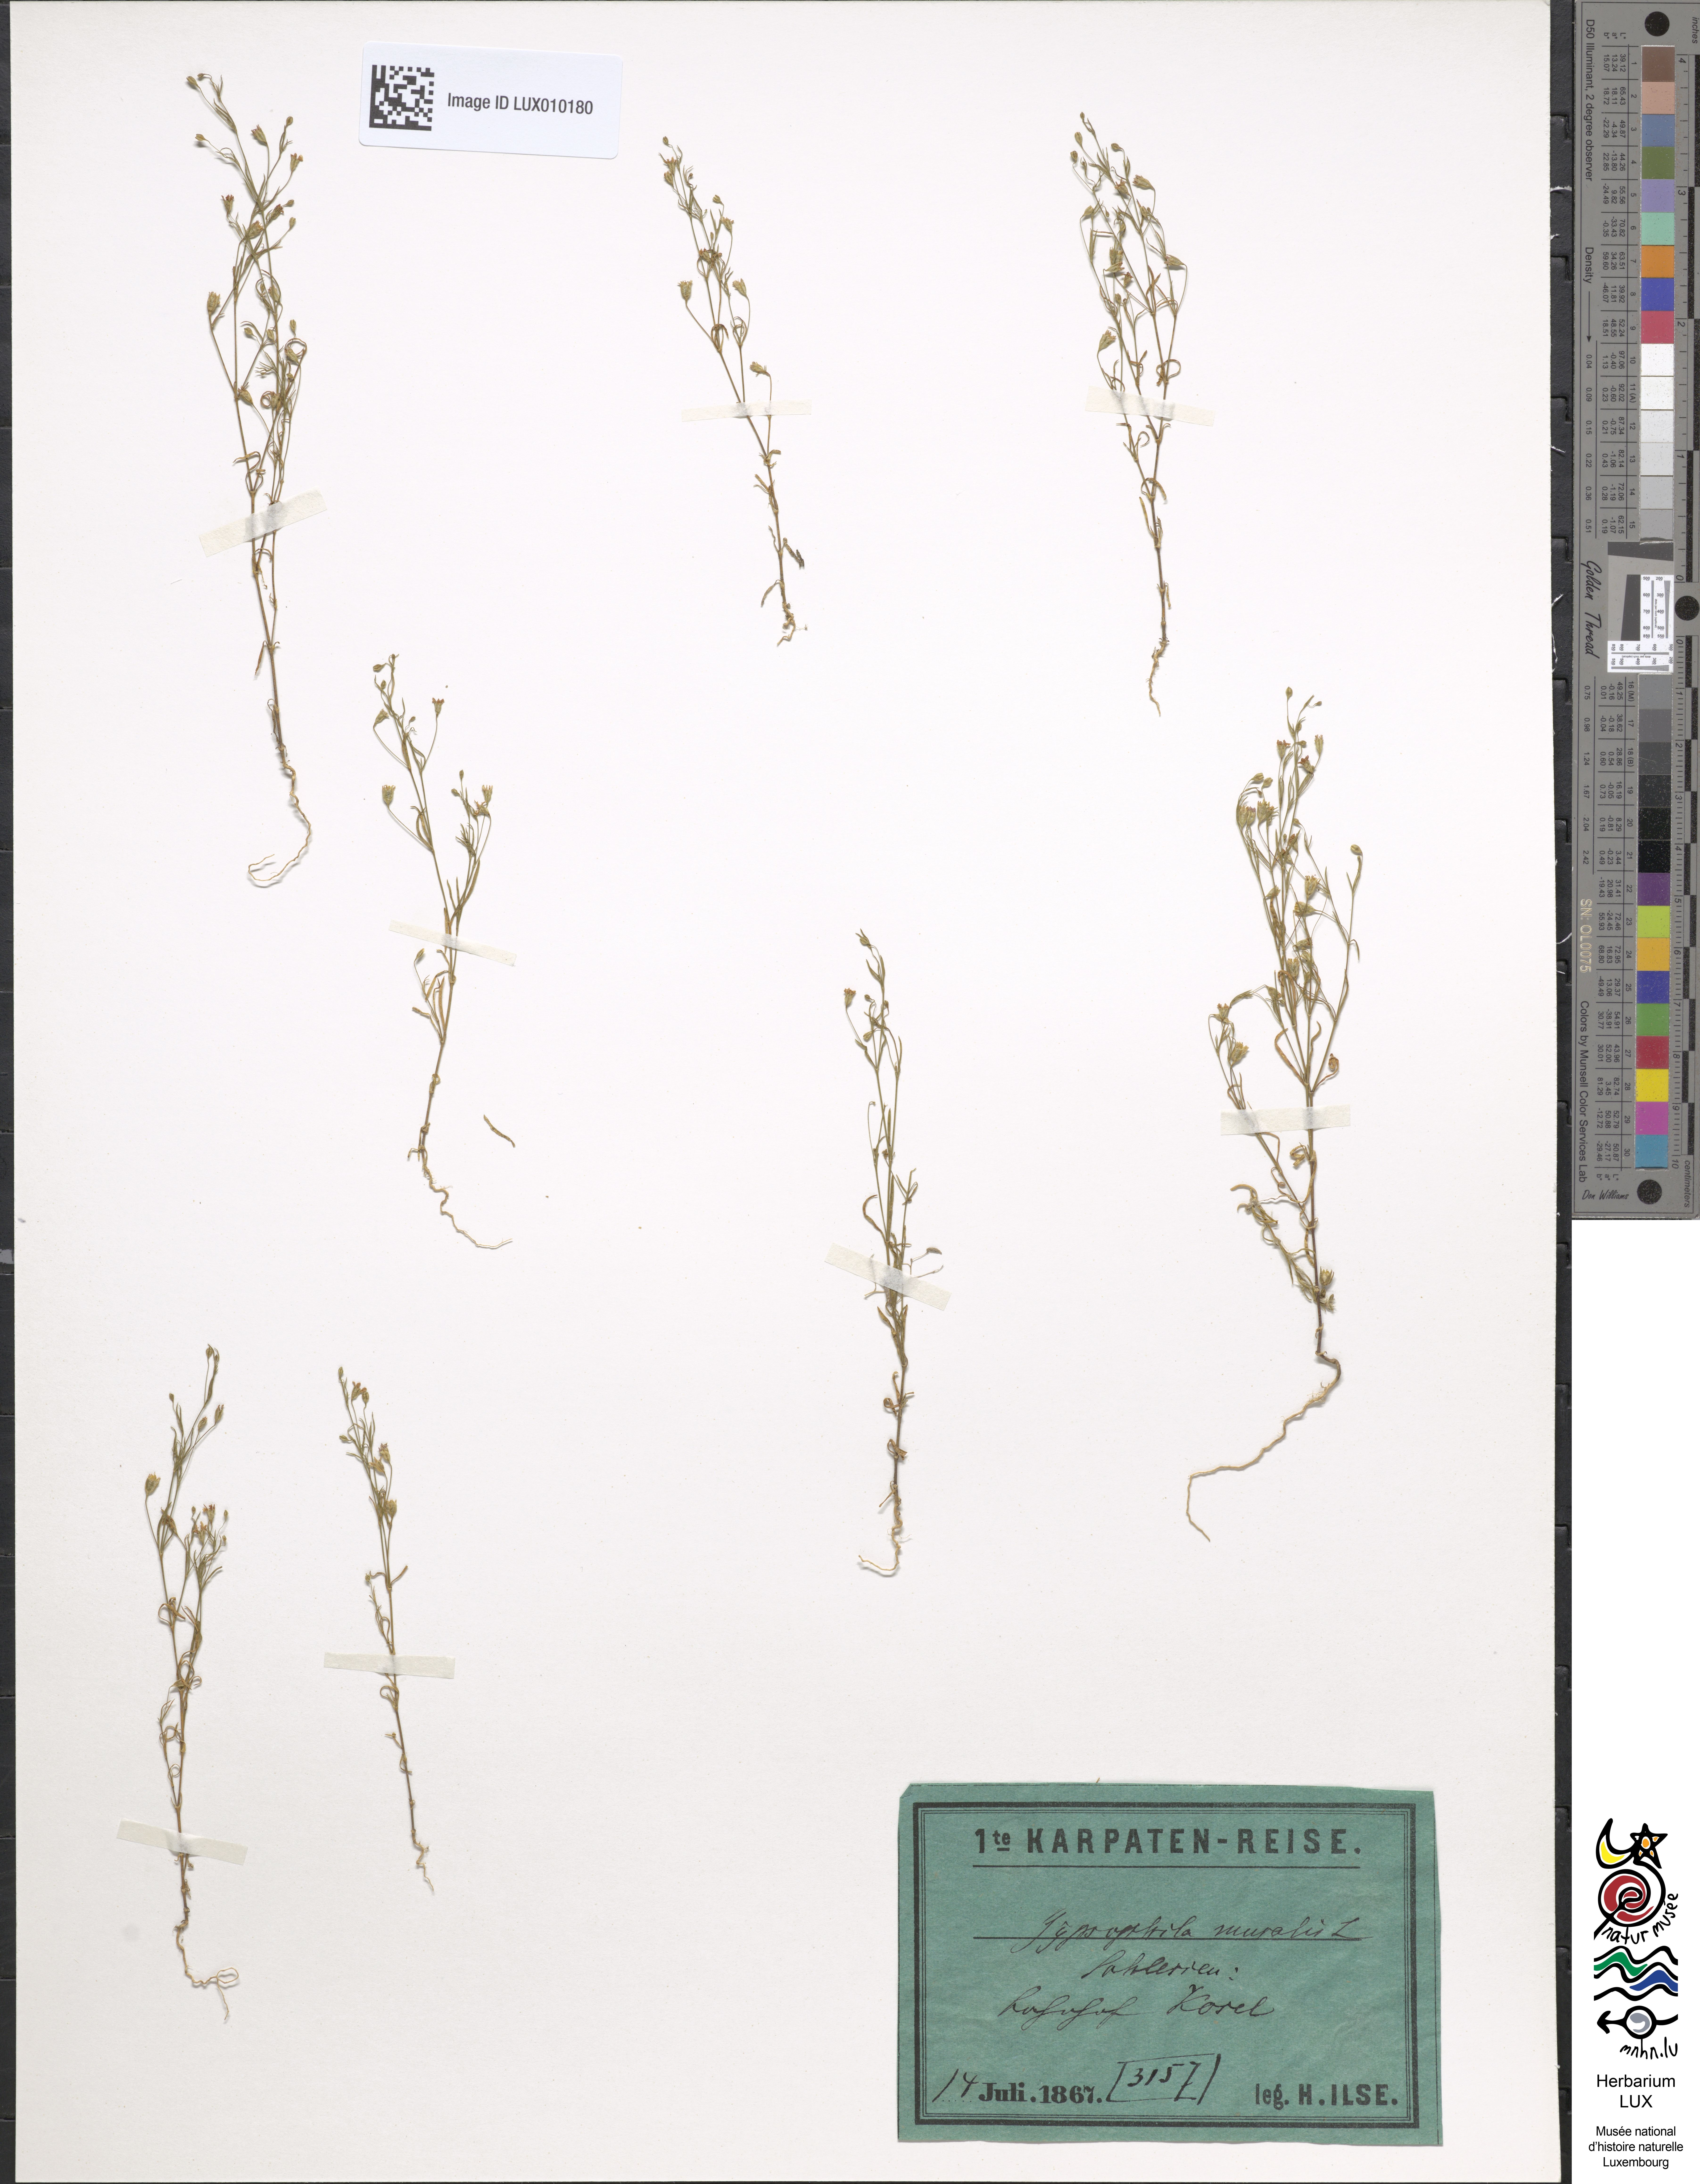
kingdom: Plantae
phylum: Tracheophyta
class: Magnoliopsida
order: Caryophyllales
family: Caryophyllaceae
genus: Psammophiliella
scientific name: Psammophiliella muralis
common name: Cushion baby's-breath
